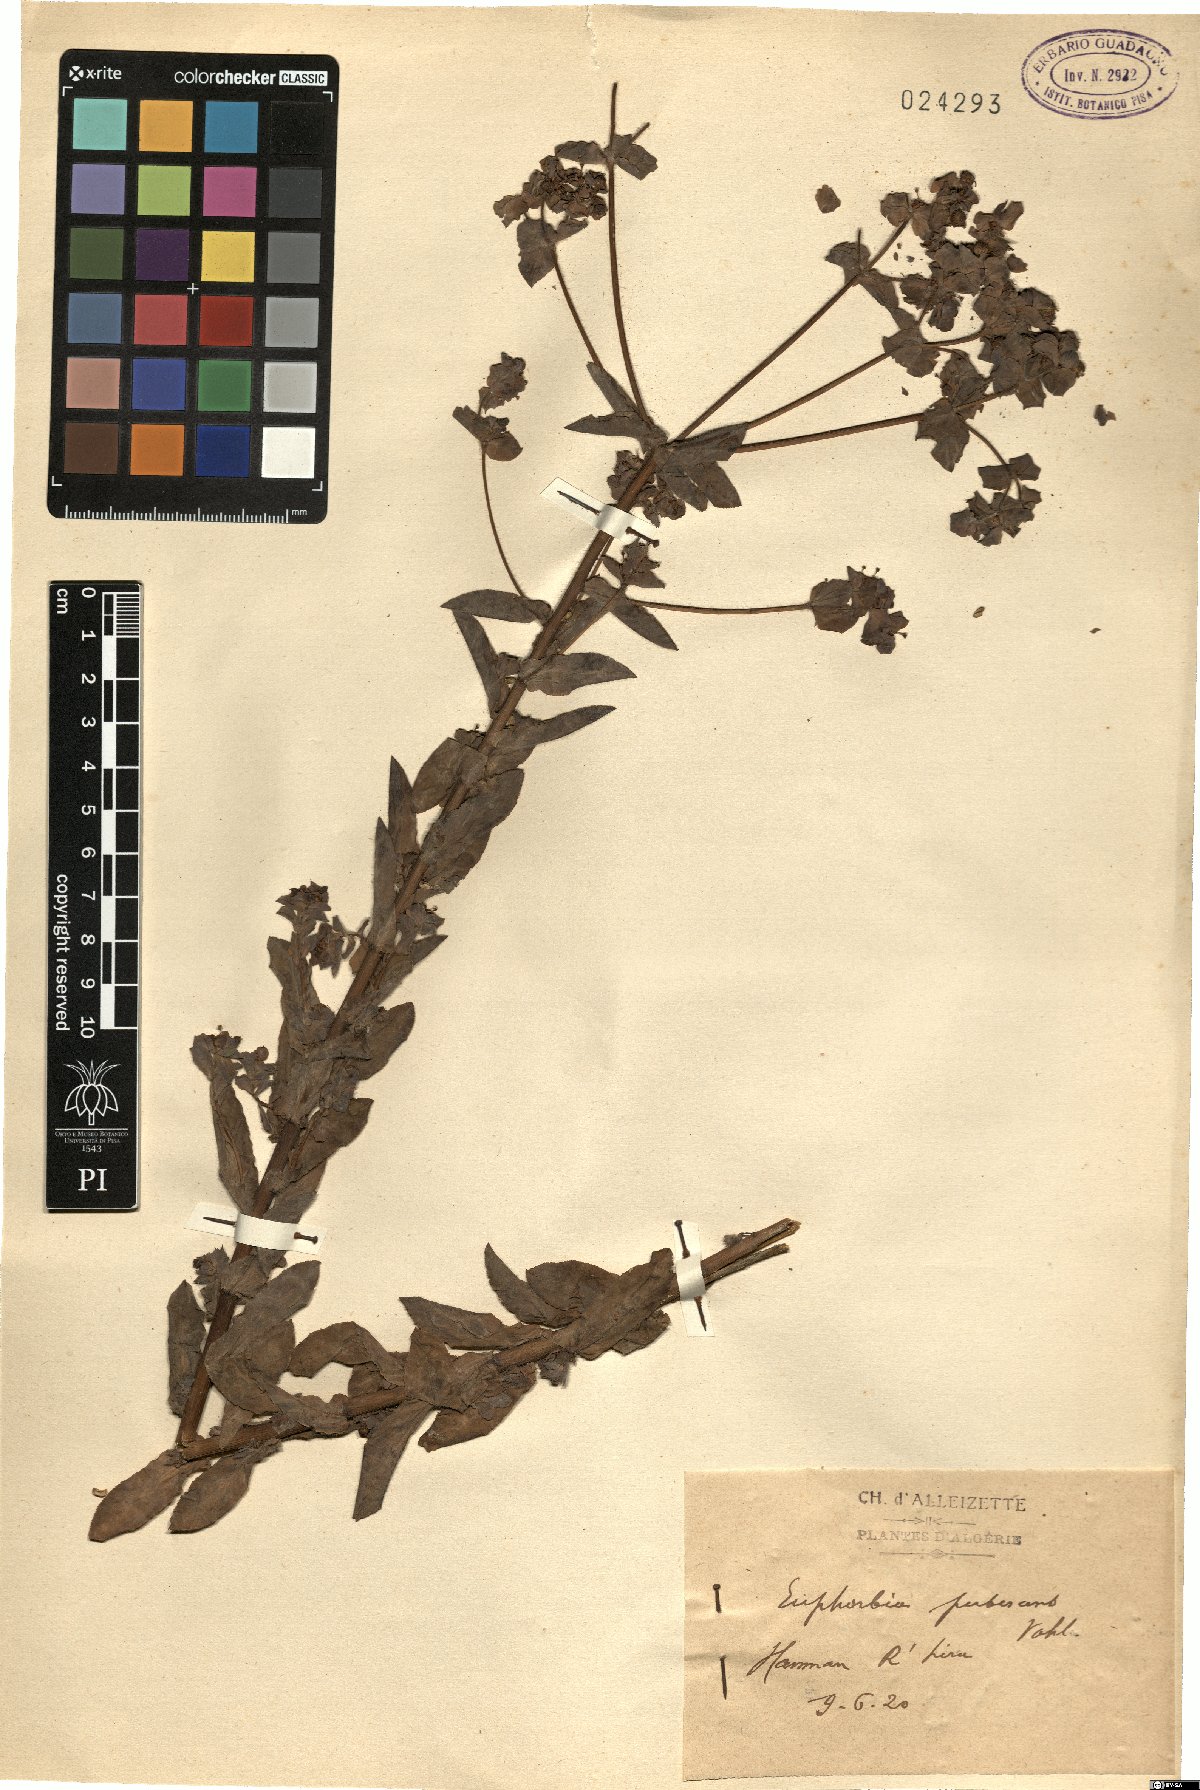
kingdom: Plantae
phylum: Tracheophyta
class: Magnoliopsida
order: Malpighiales
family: Euphorbiaceae
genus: Euphorbia
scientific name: Euphorbia hirsuta
